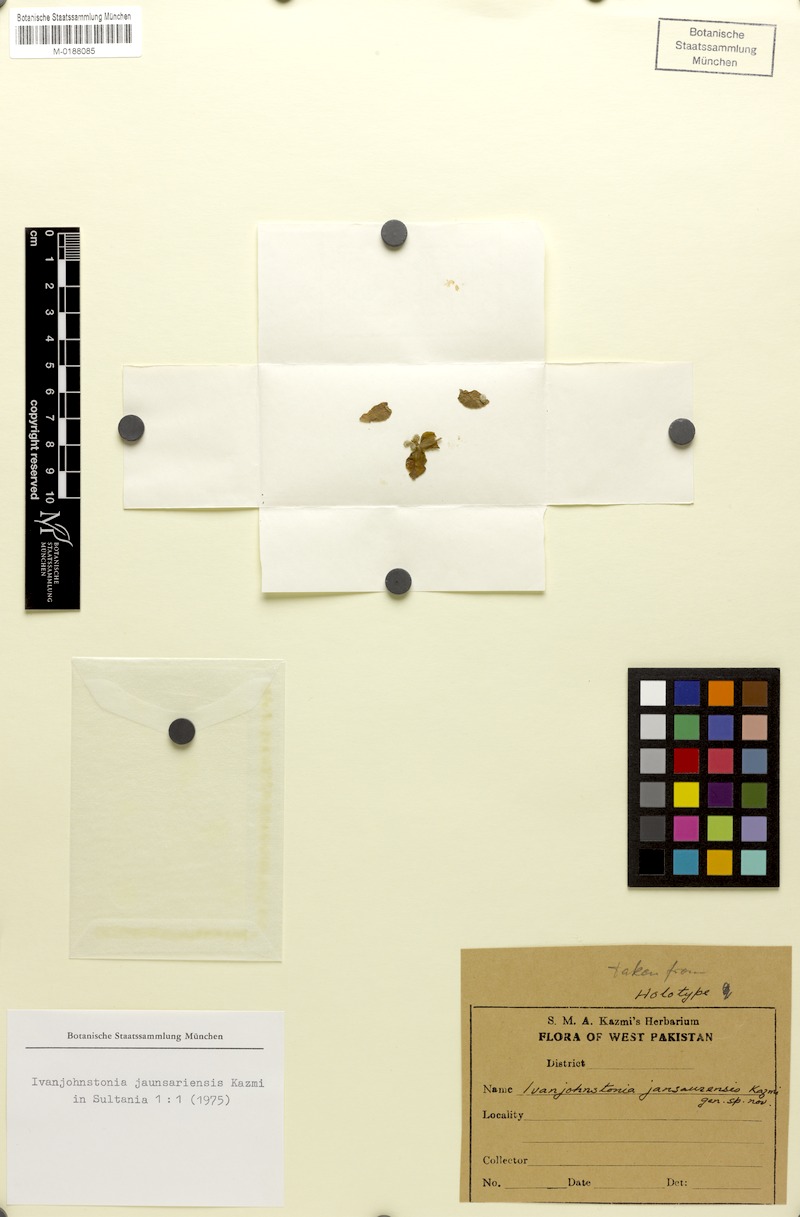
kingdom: Plantae
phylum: Tracheophyta
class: Magnoliopsida
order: Boraginales
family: Boraginaceae
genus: Ivanjohnstonia
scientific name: Ivanjohnstonia jaunsariensis
